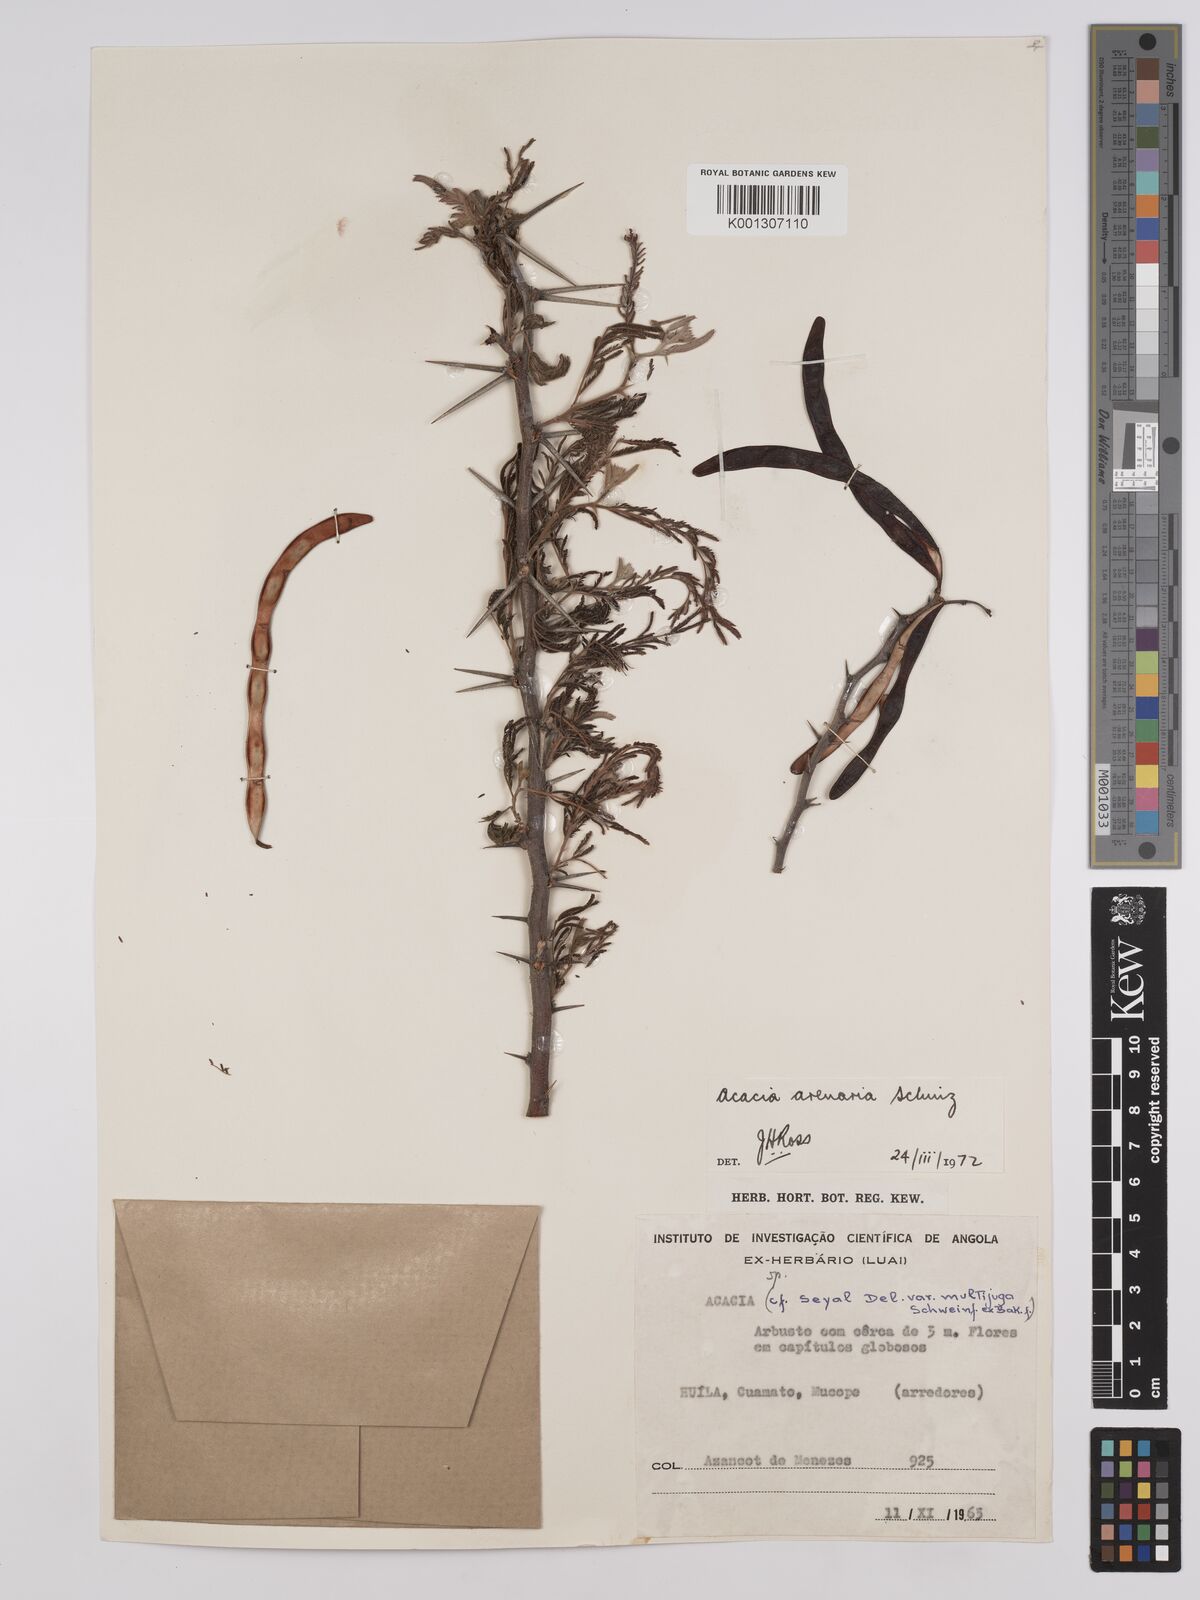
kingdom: Plantae
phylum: Tracheophyta
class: Magnoliopsida
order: Fabales
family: Fabaceae
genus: Vachellia
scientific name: Vachellia arenaria
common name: Sand acacia
